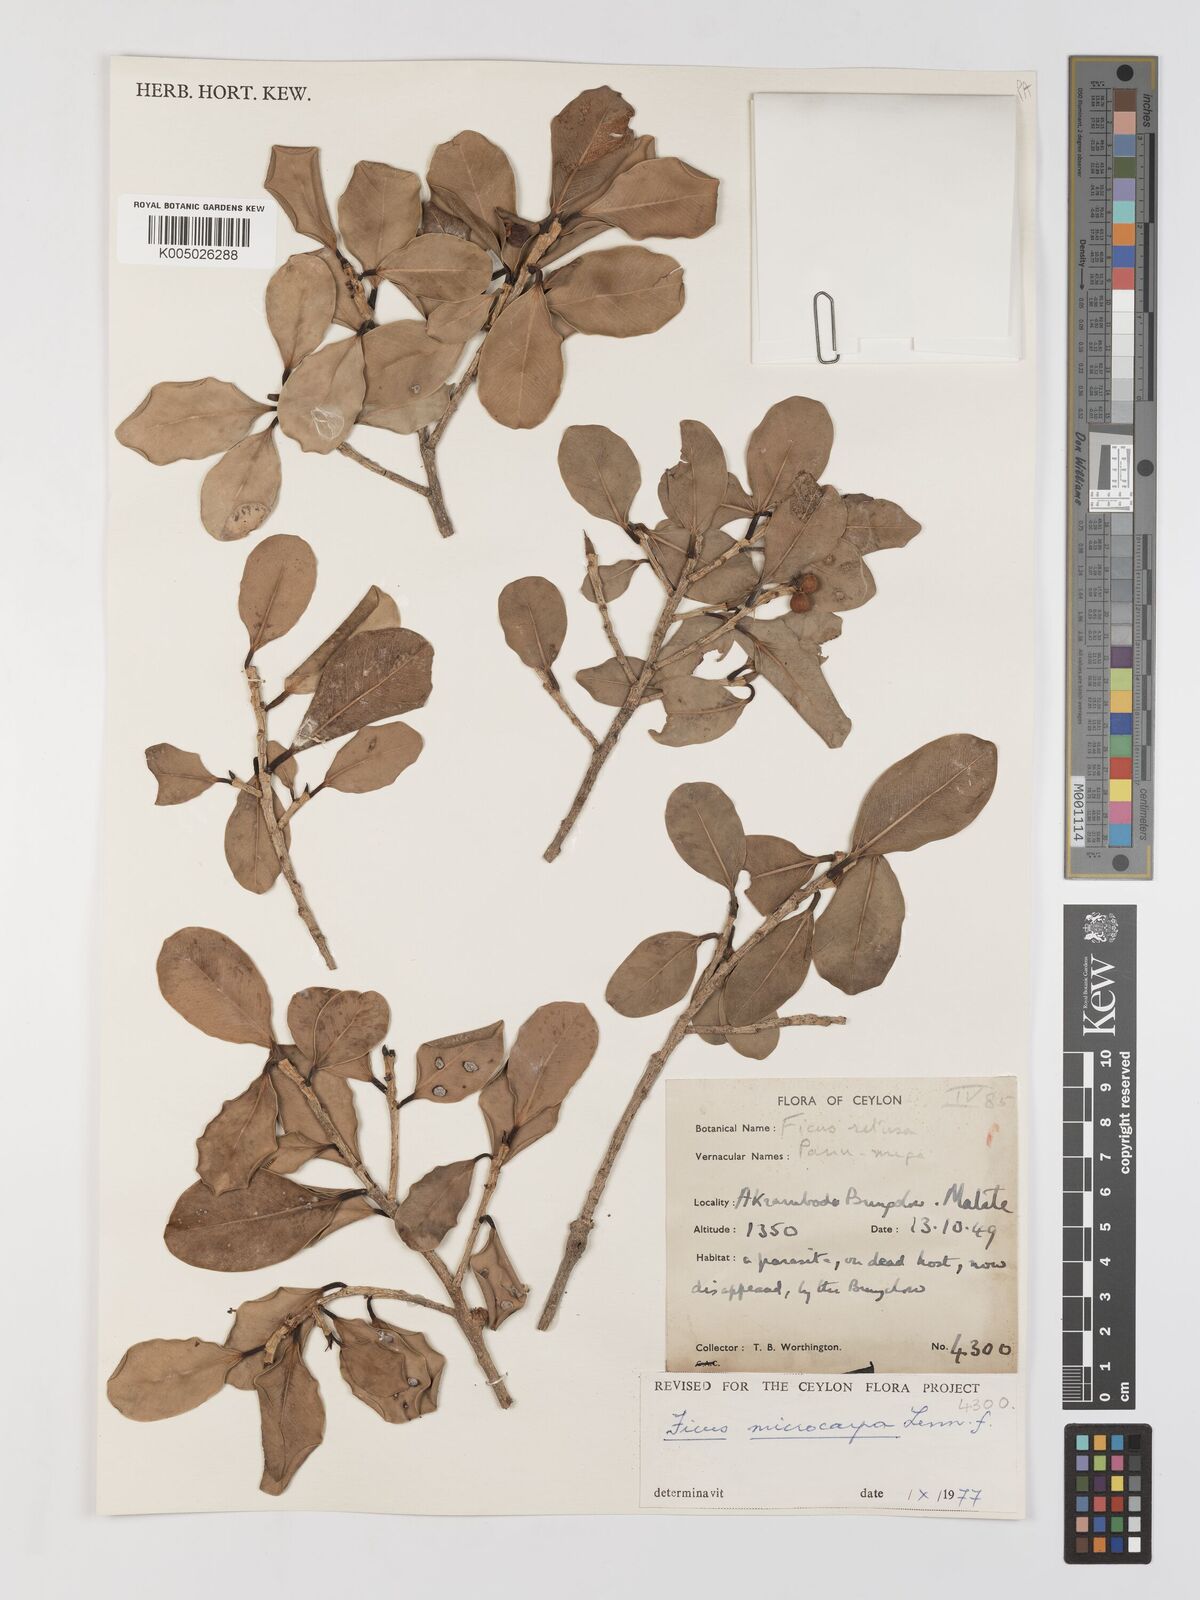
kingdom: Plantae
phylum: Tracheophyta
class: Magnoliopsida
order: Rosales
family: Moraceae
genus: Ficus
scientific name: Ficus
